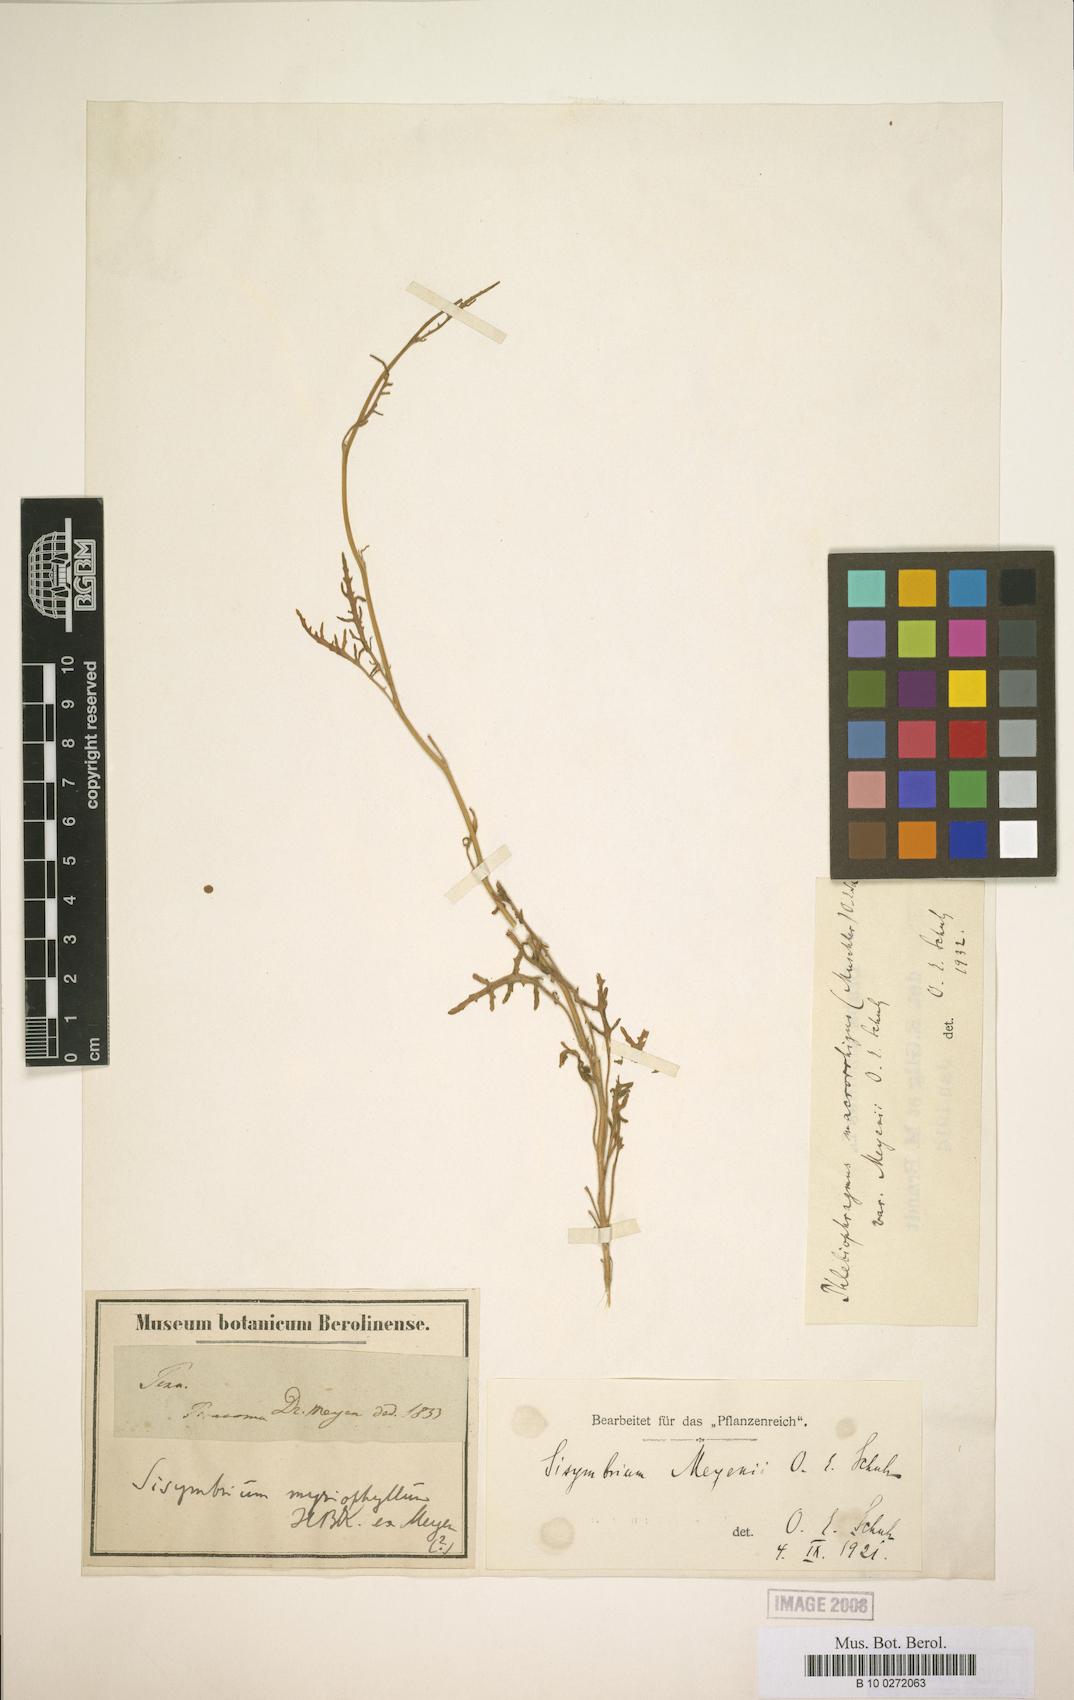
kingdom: Plantae
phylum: Tracheophyta
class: Magnoliopsida
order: Brassicales
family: Brassicaceae
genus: Mostacillastrum
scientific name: Mostacillastrum gracile
